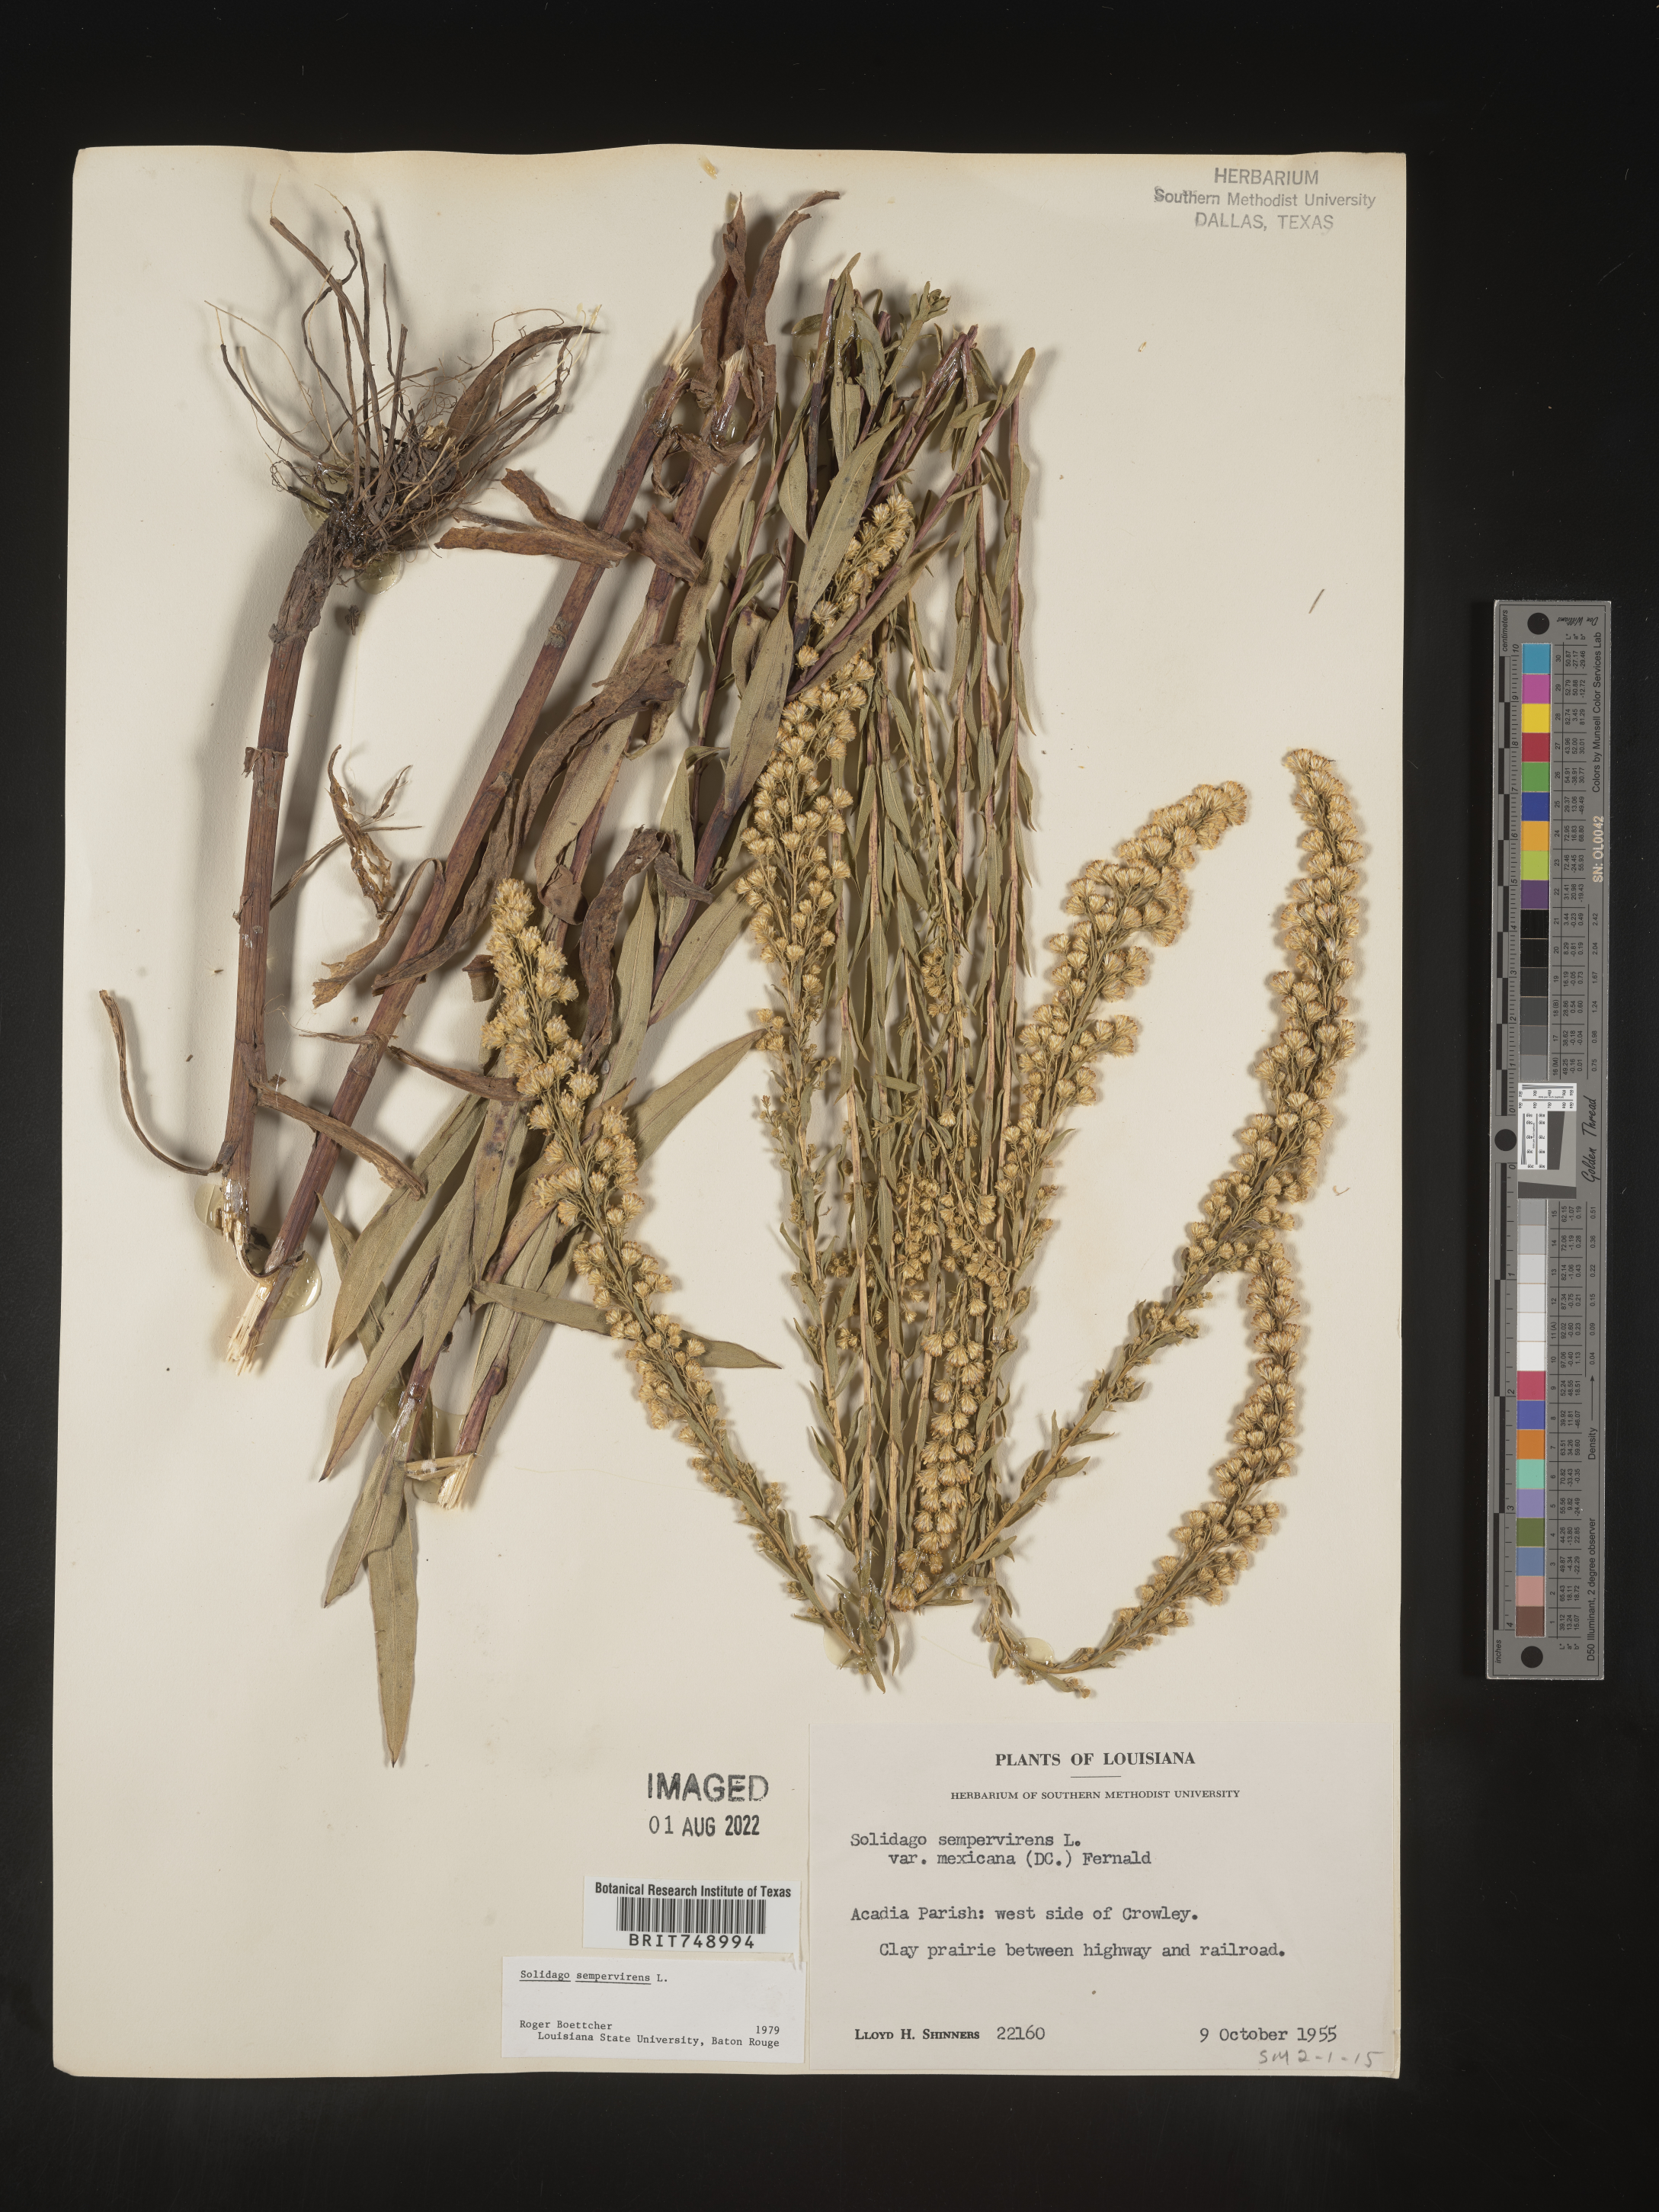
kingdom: Plantae
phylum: Tracheophyta
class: Magnoliopsida
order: Asterales
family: Asteraceae
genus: Solidago
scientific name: Solidago sempervirens
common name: Salt-marsh goldenrod
